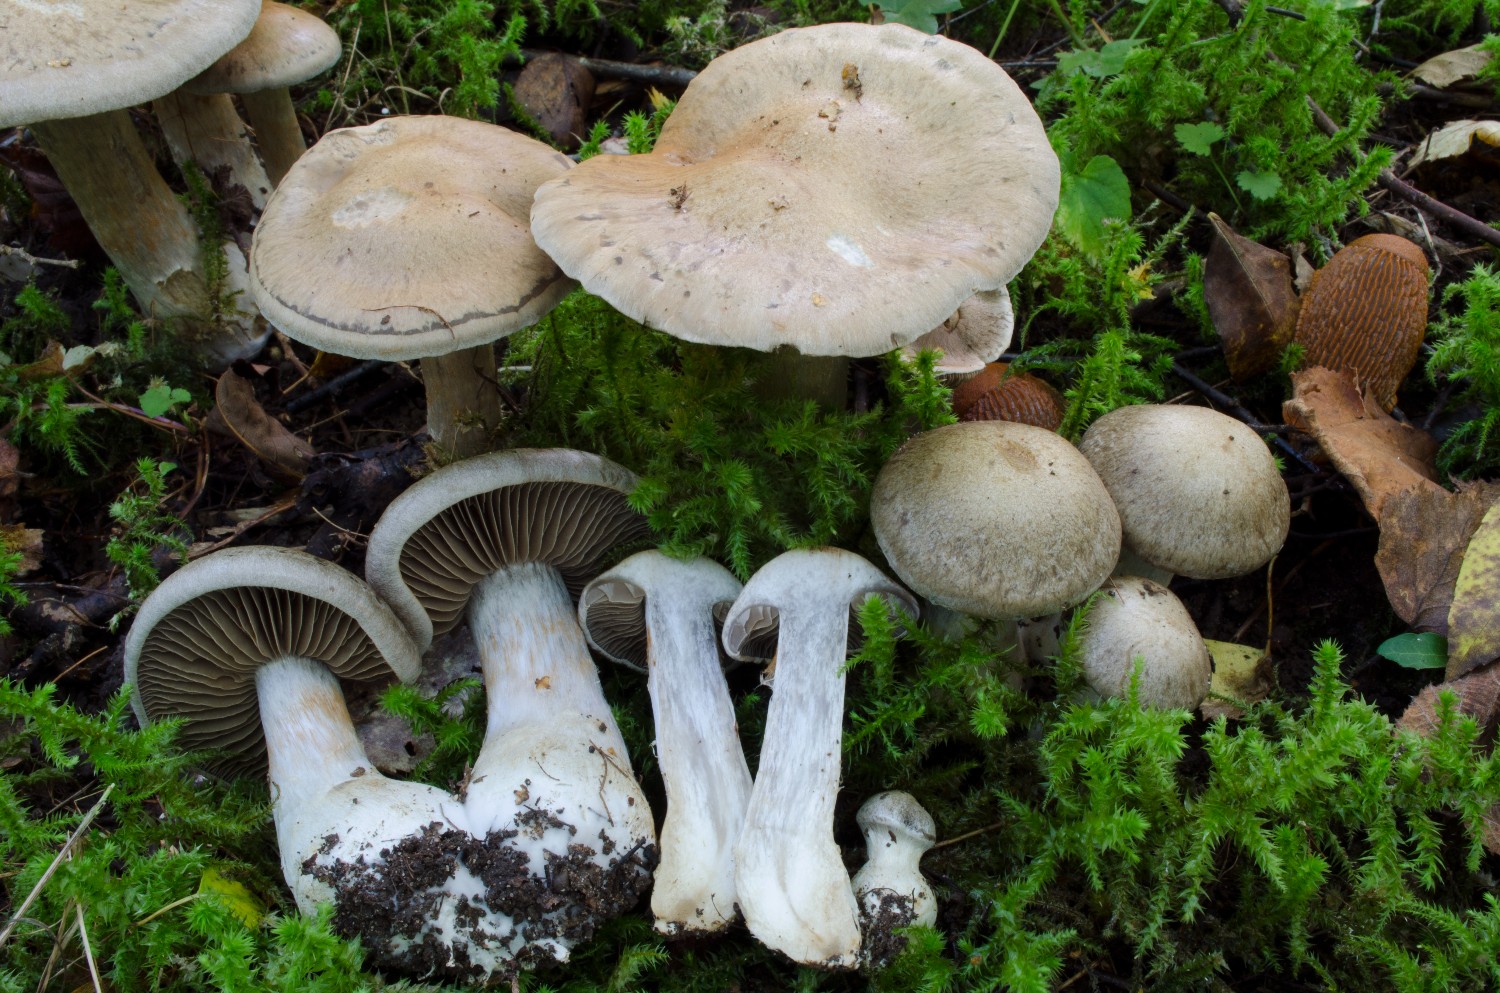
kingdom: Fungi
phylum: Basidiomycota
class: Agaricomycetes
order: Agaricales
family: Cortinariaceae
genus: Cortinarius
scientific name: Cortinarius
